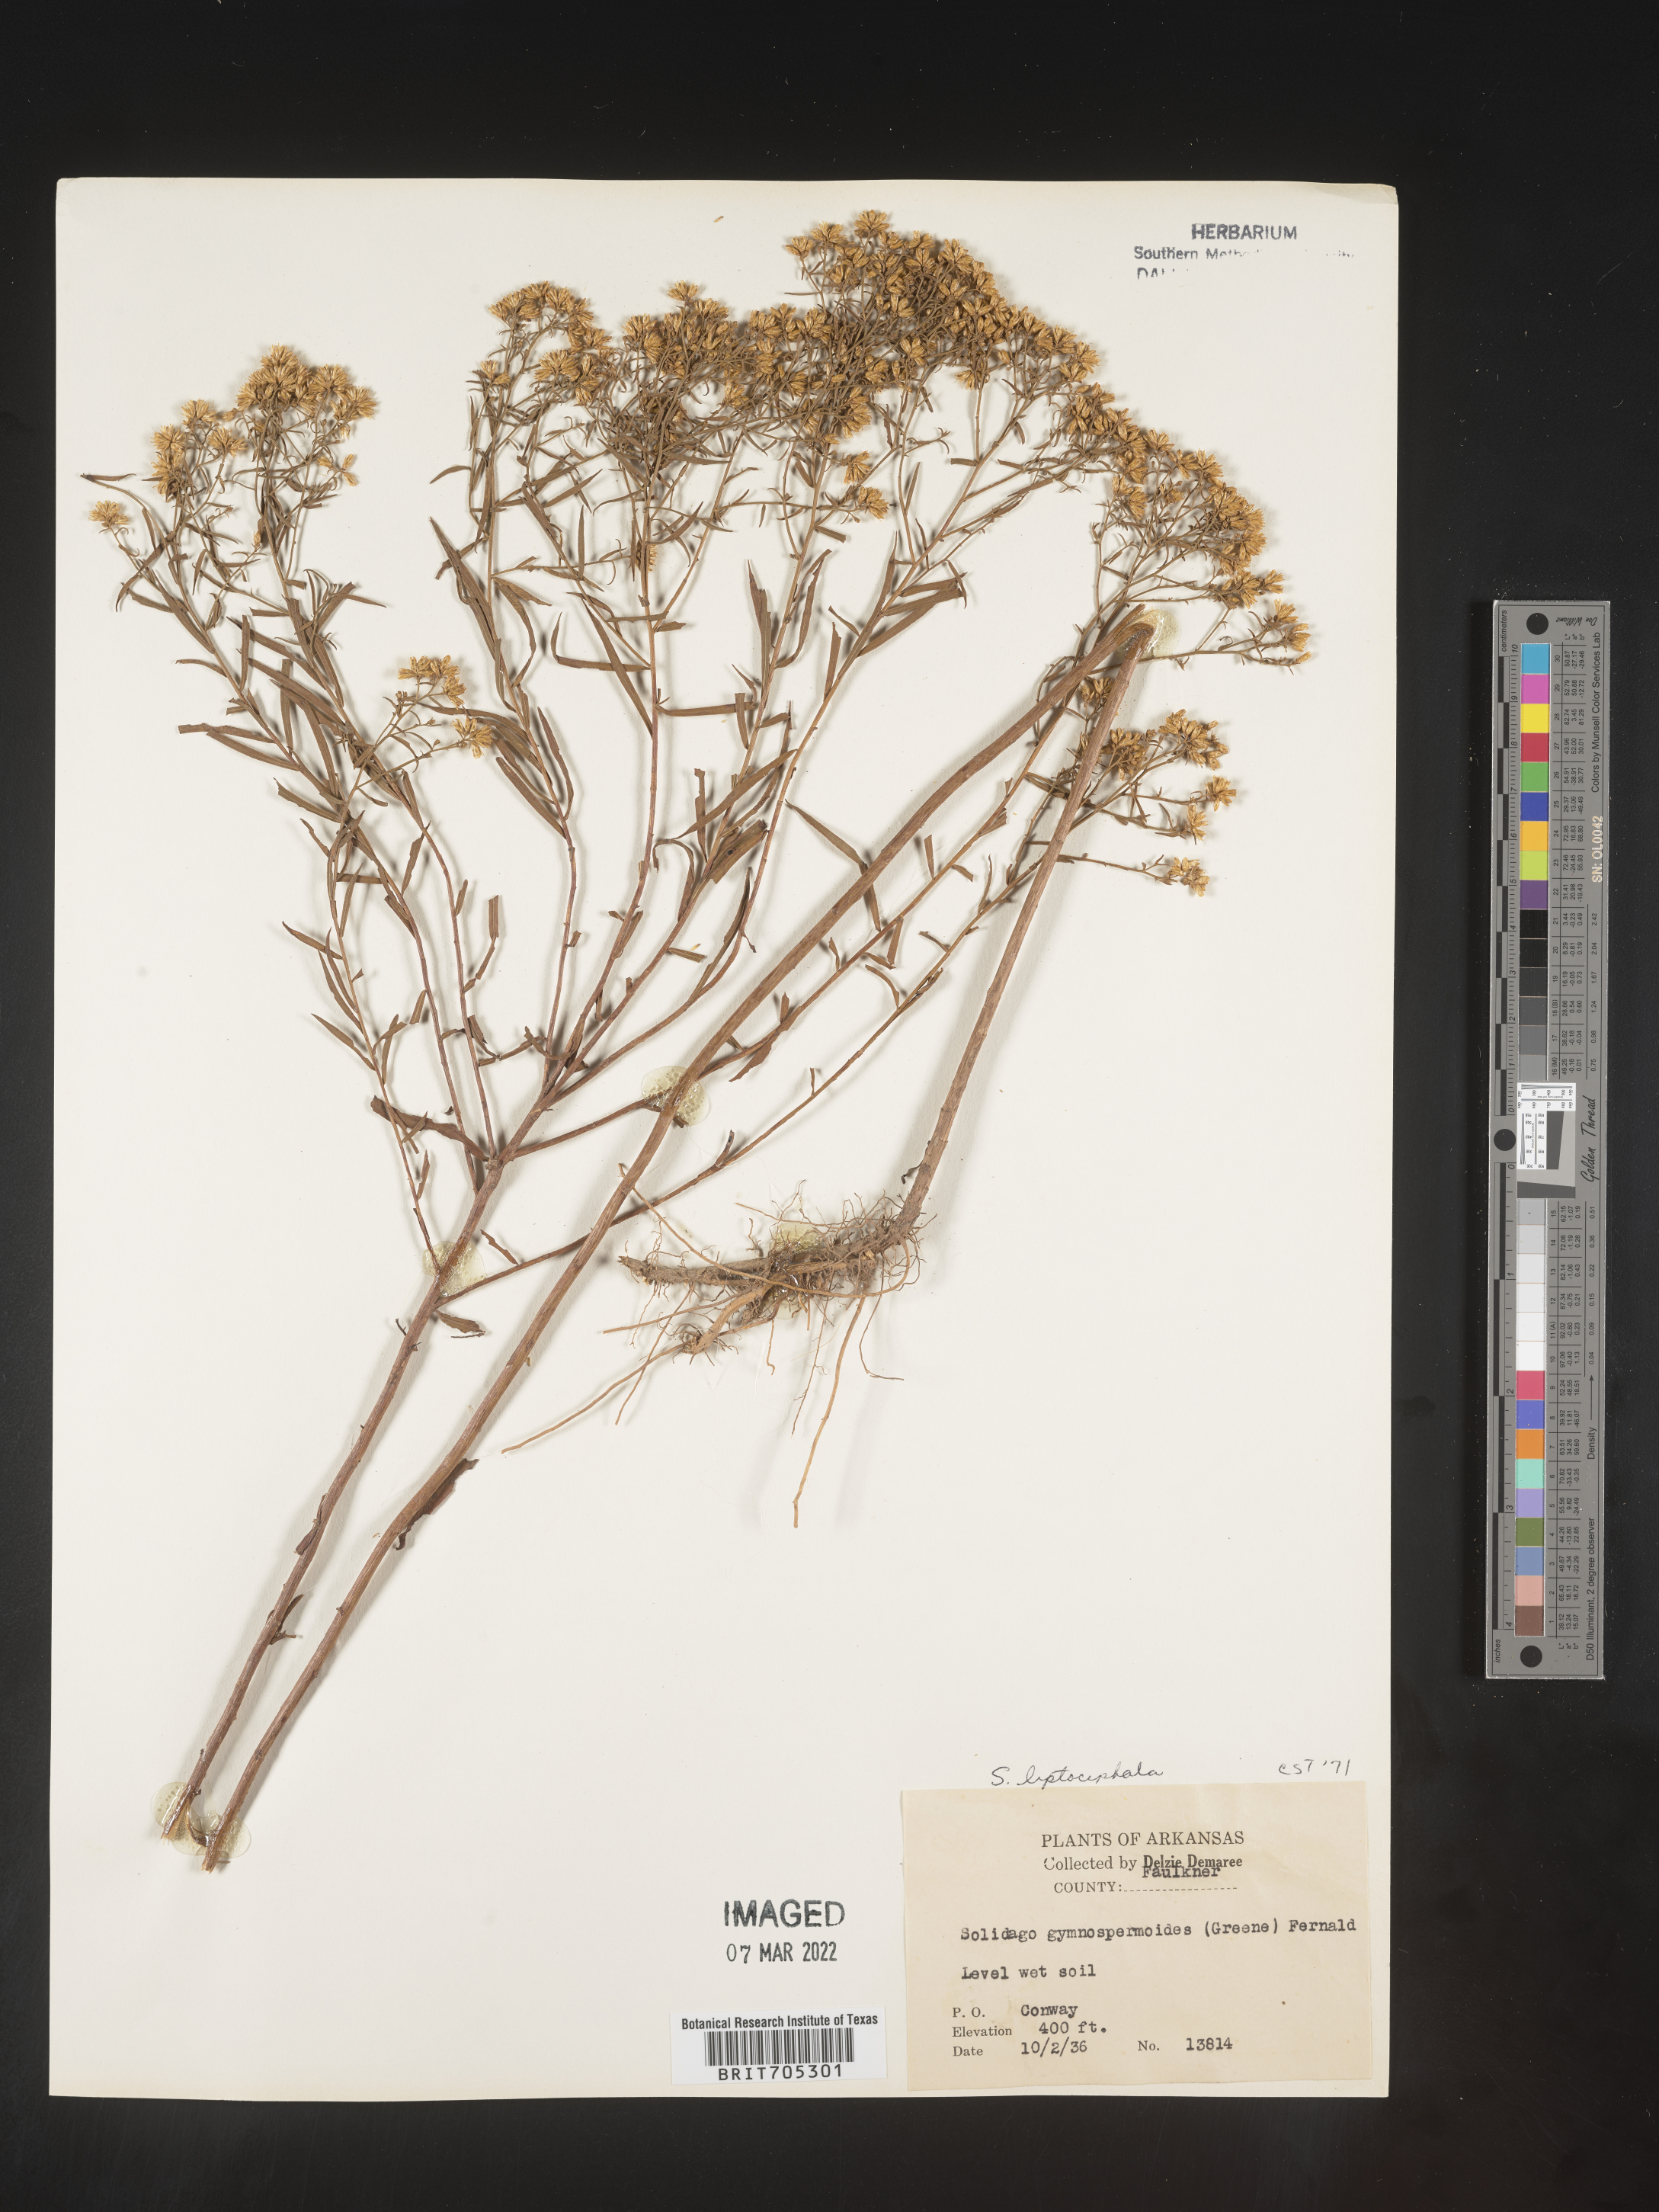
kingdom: Plantae
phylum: Tracheophyta
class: Magnoliopsida
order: Asterales
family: Asteraceae
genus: Euthamia
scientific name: Euthamia gymnospermoides
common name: Great plains goldentop
